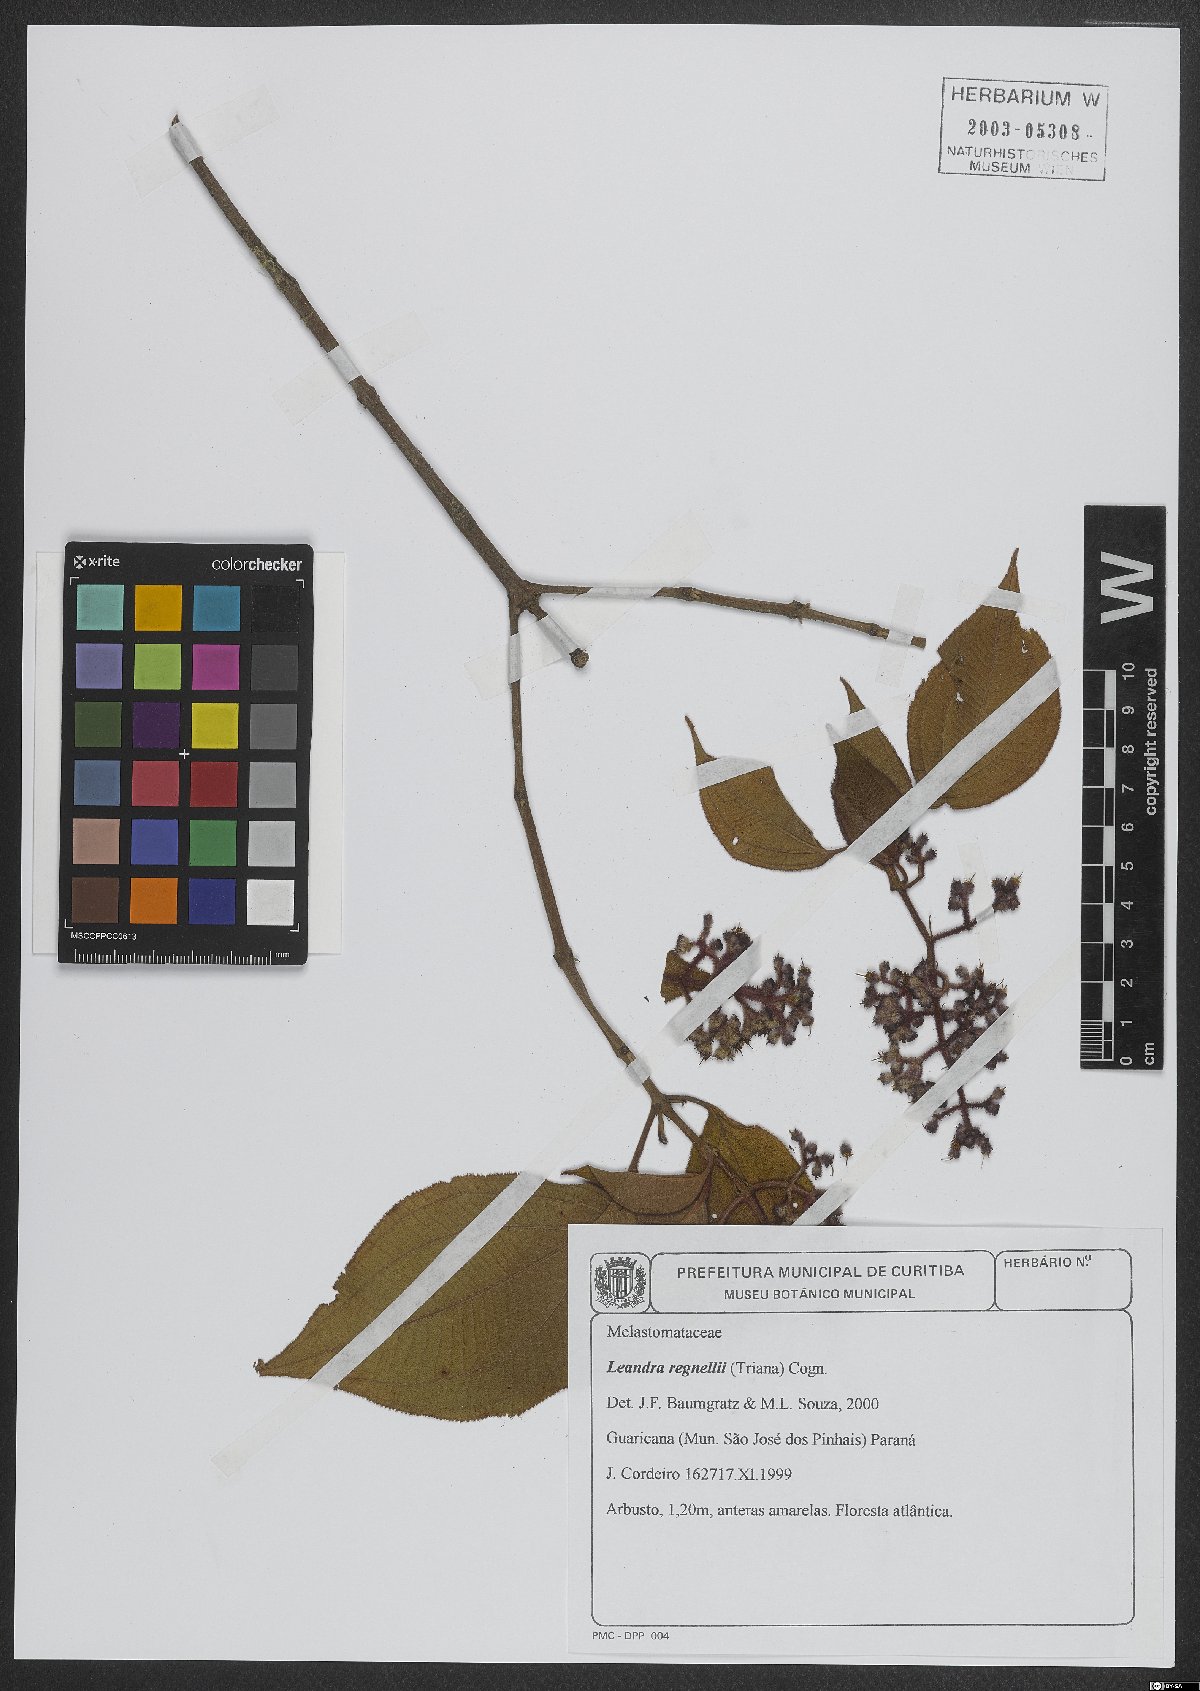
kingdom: Plantae
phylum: Tracheophyta
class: Magnoliopsida
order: Myrtales
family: Melastomataceae
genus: Miconia
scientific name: Miconia alterninervia
